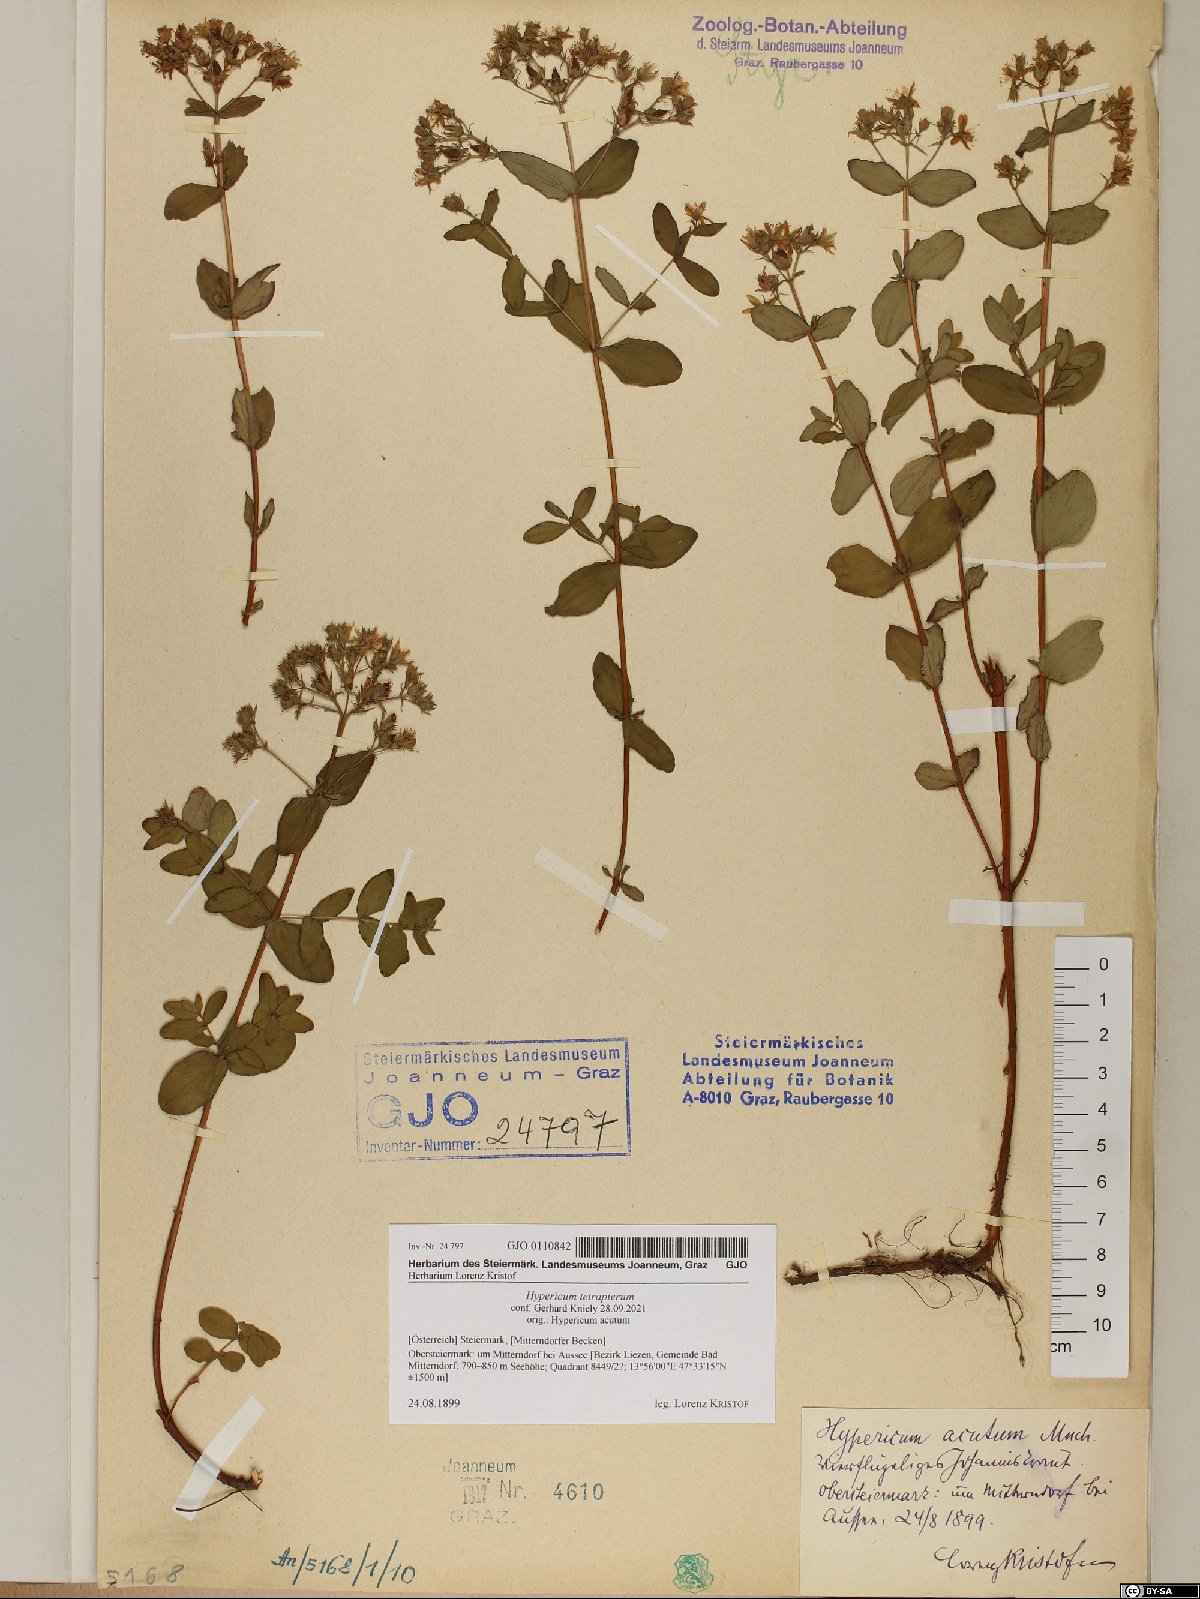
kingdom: Plantae
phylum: Tracheophyta
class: Magnoliopsida
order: Malpighiales
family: Hypericaceae
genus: Hypericum
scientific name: Hypericum tetrapterum
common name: Square-stalked st. john's-wort
